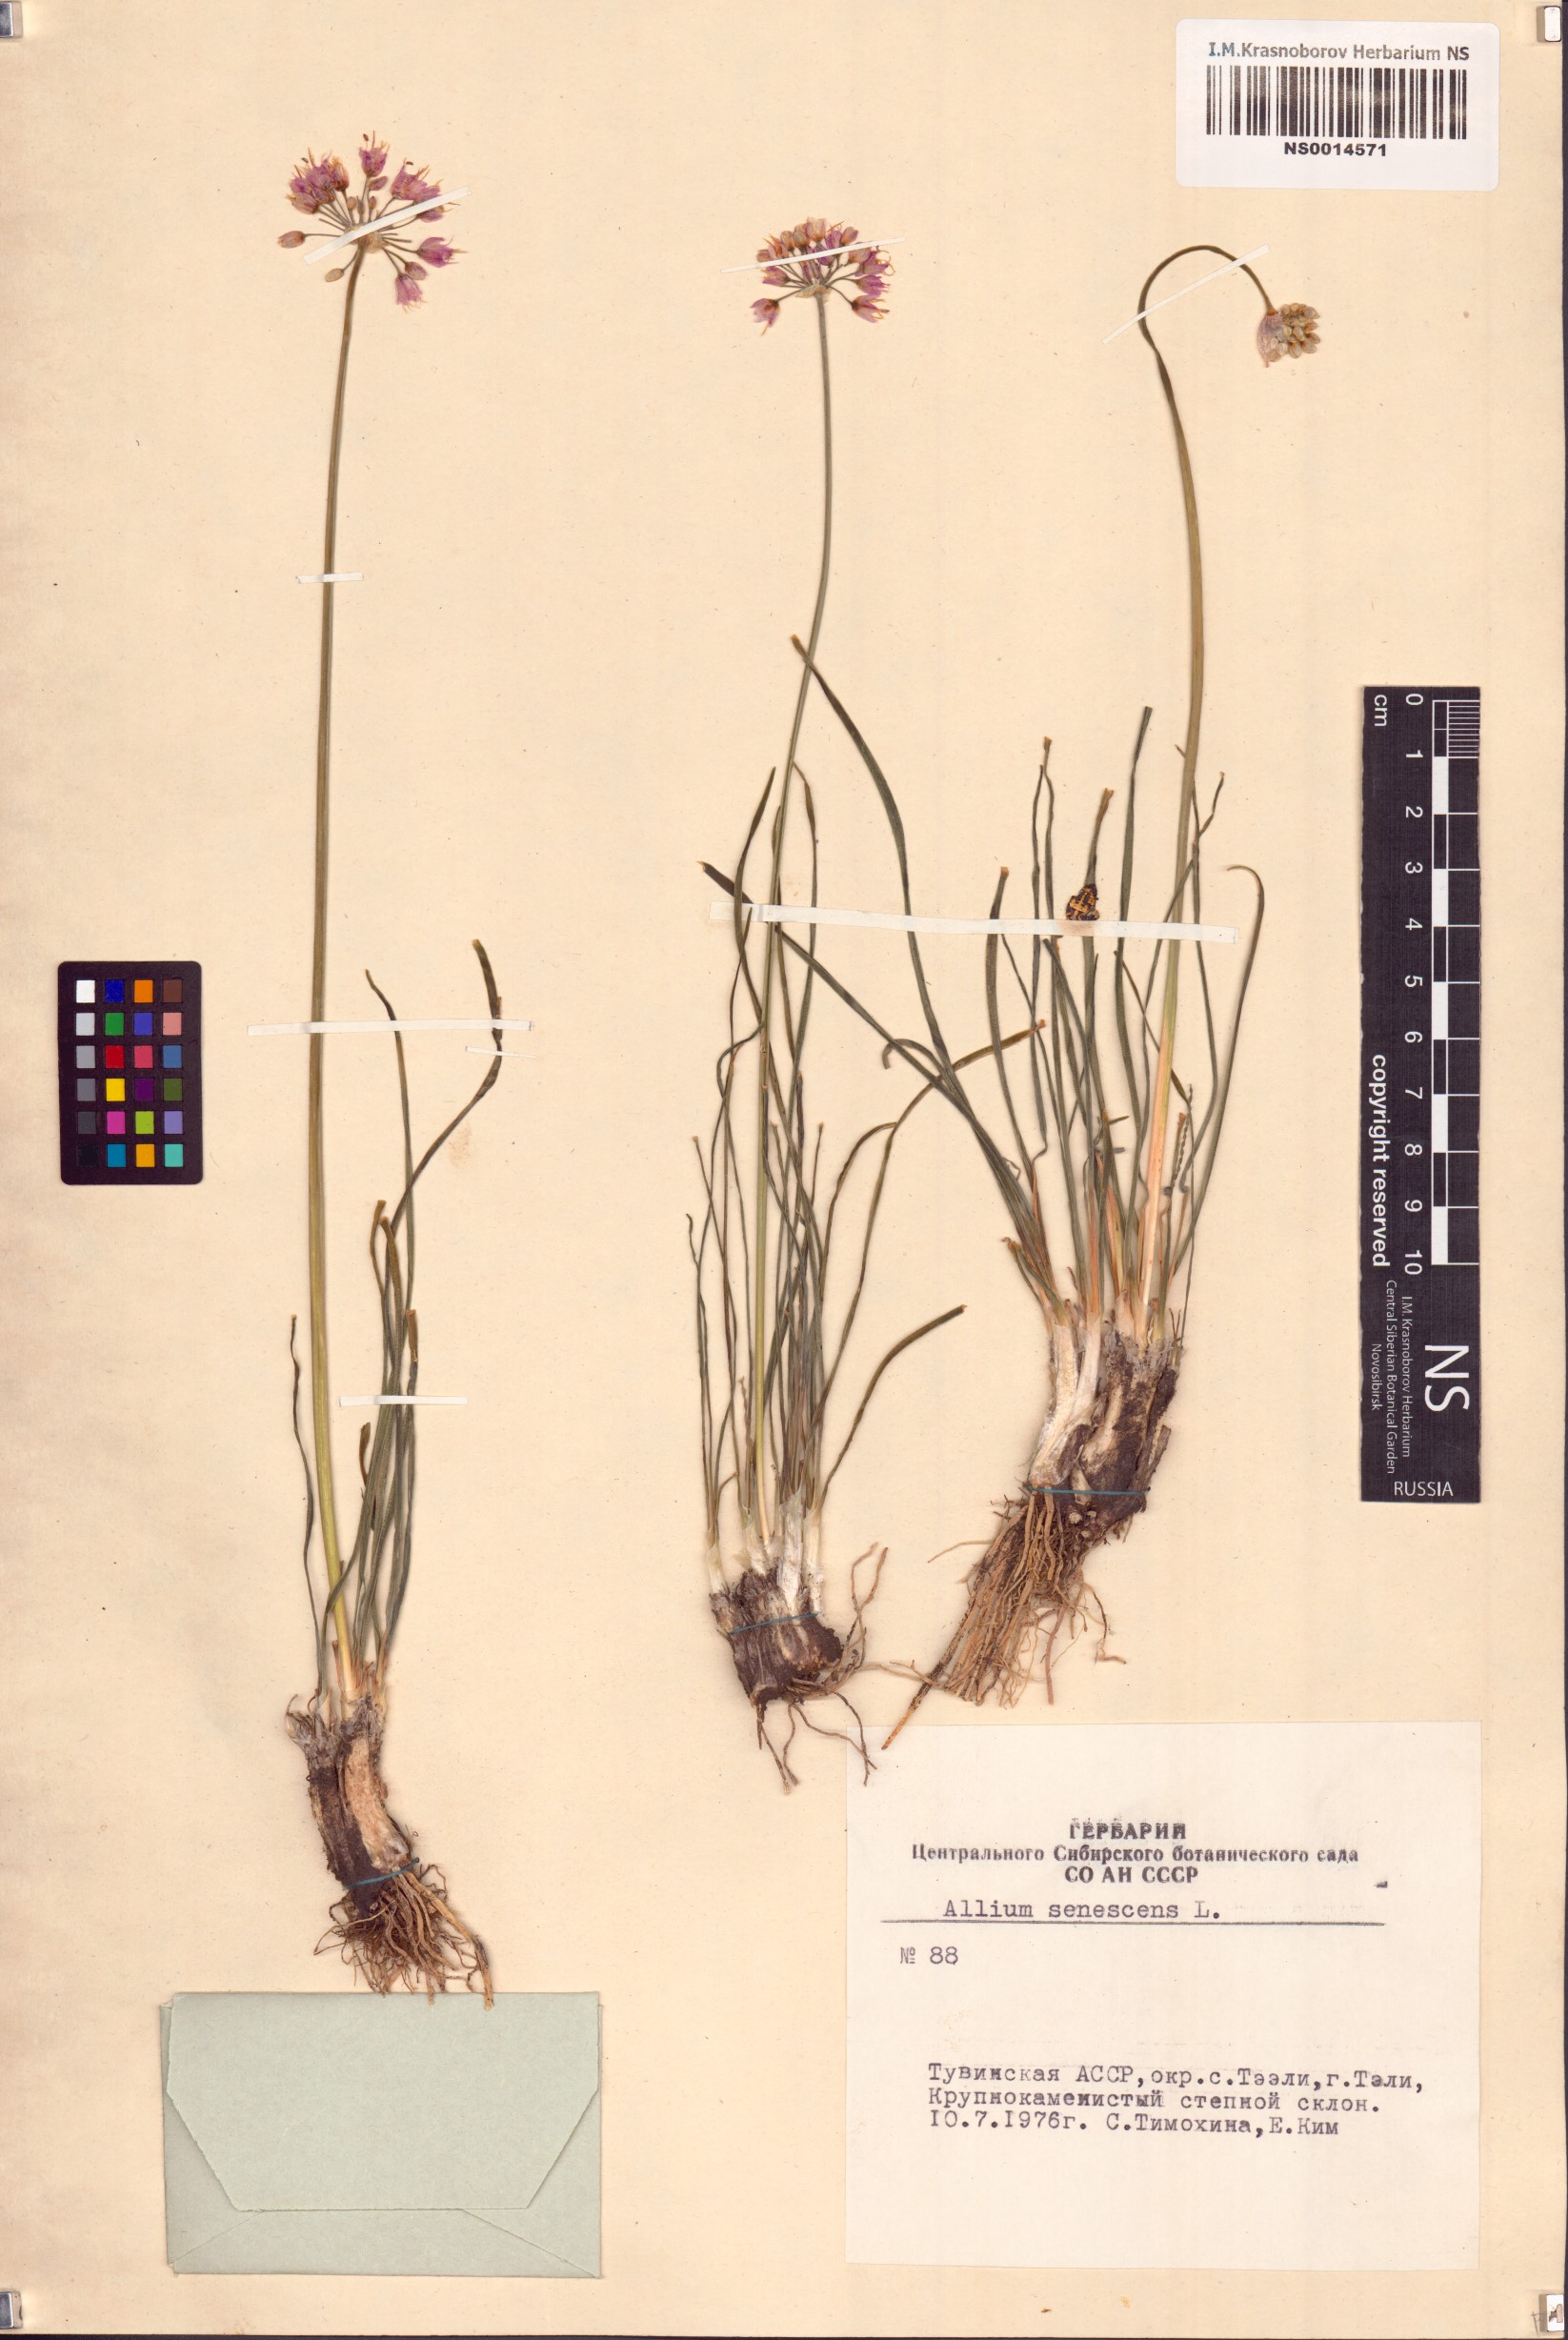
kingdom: Plantae
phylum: Tracheophyta
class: Liliopsida
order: Asparagales
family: Amaryllidaceae
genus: Allium
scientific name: Allium senescens
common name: German garlic
